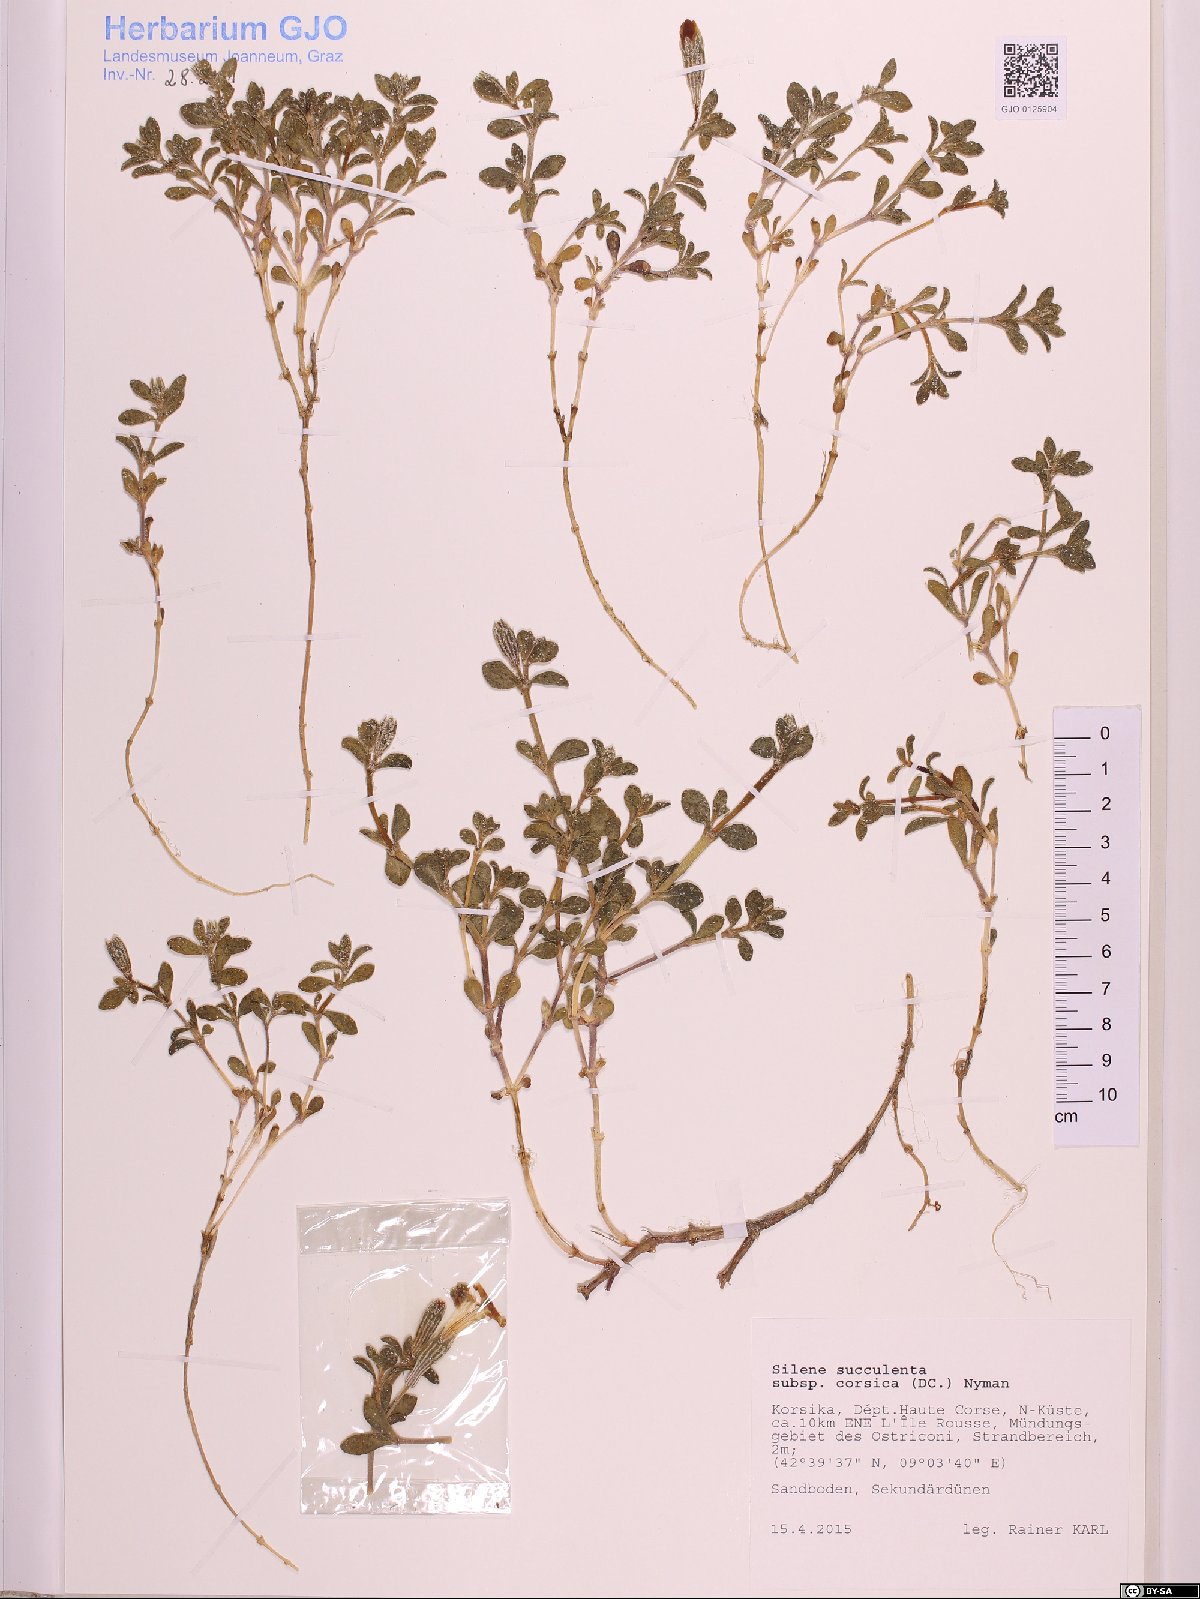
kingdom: Plantae
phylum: Tracheophyta
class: Magnoliopsida
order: Caryophyllales
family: Caryophyllaceae
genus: Silene
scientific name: Silene succulenta
